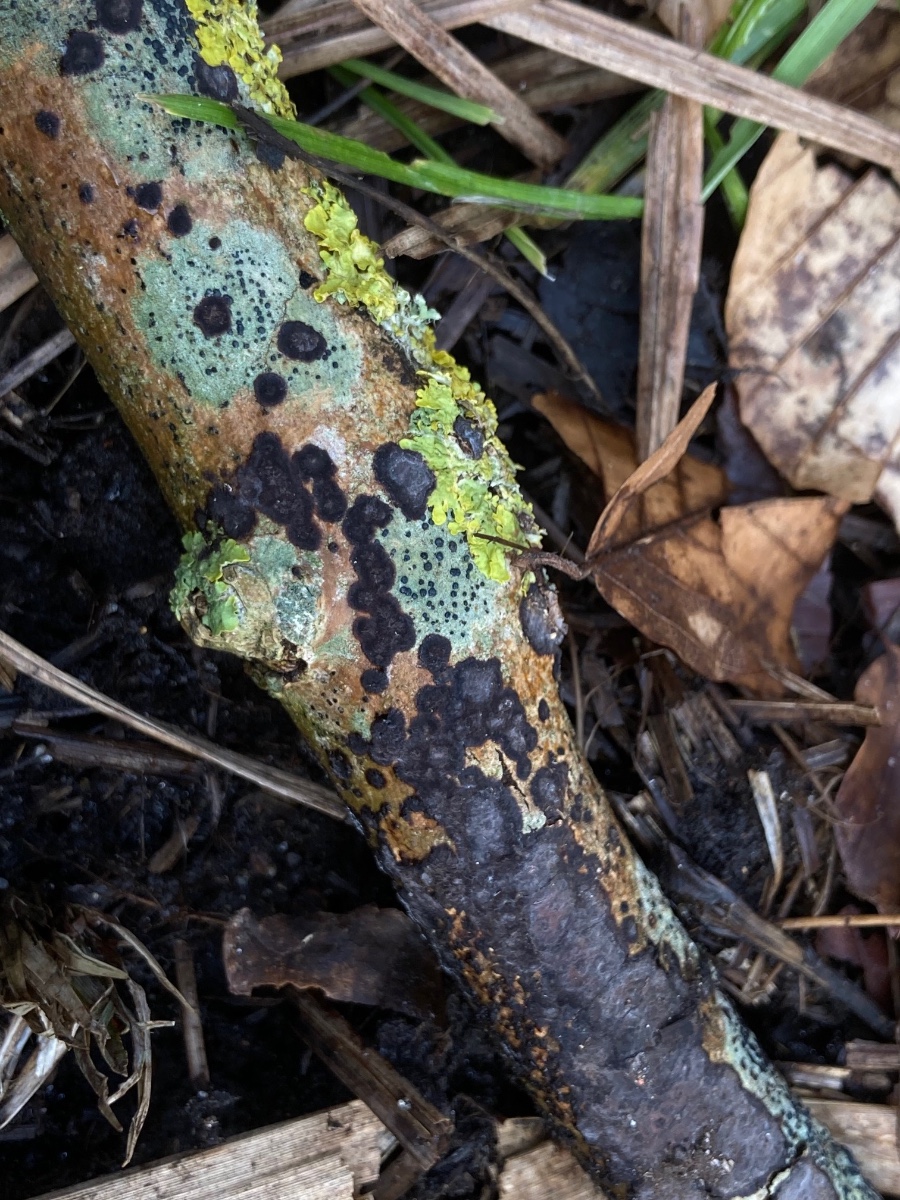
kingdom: Fungi
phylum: Basidiomycota
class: Agaricomycetes
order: Russulales
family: Peniophoraceae
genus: Peniophora
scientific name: Peniophora limitata
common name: mørkrandet voksskind
